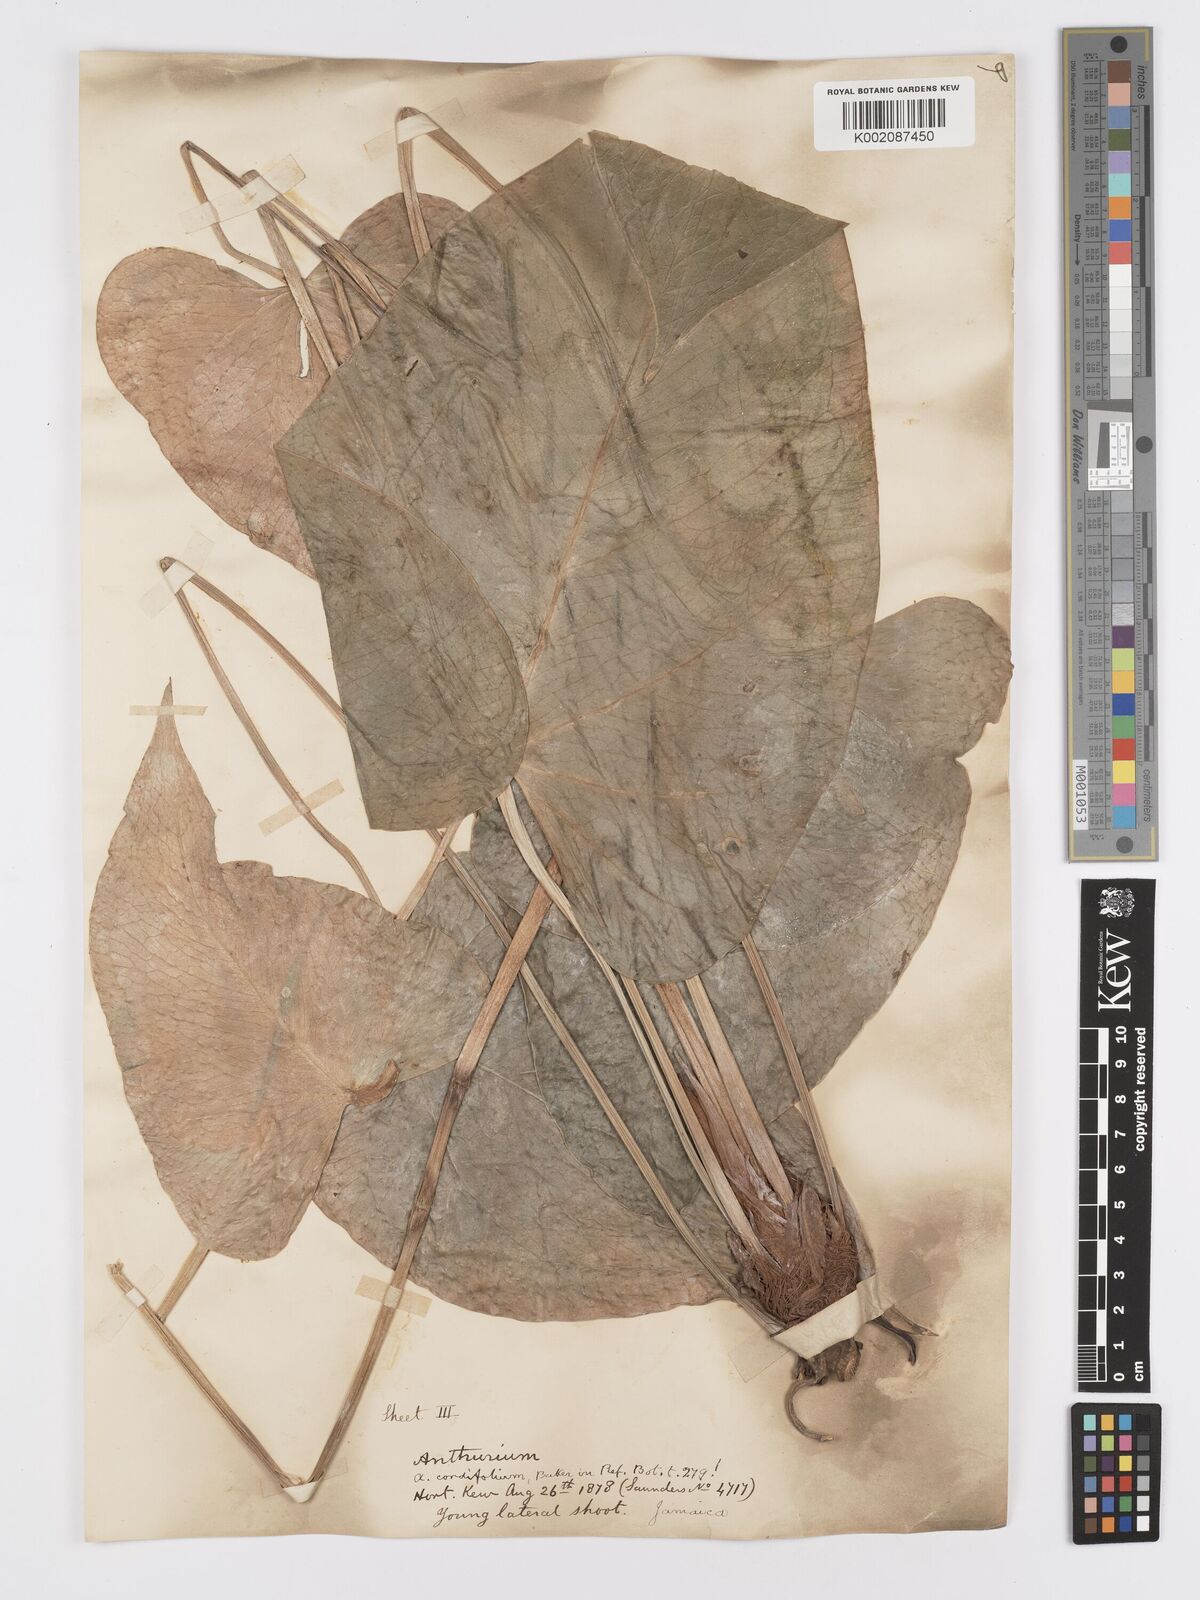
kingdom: Plantae
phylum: Tracheophyta
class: Liliopsida
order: Alismatales
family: Araceae
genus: Anthurium
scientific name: Anthurium
